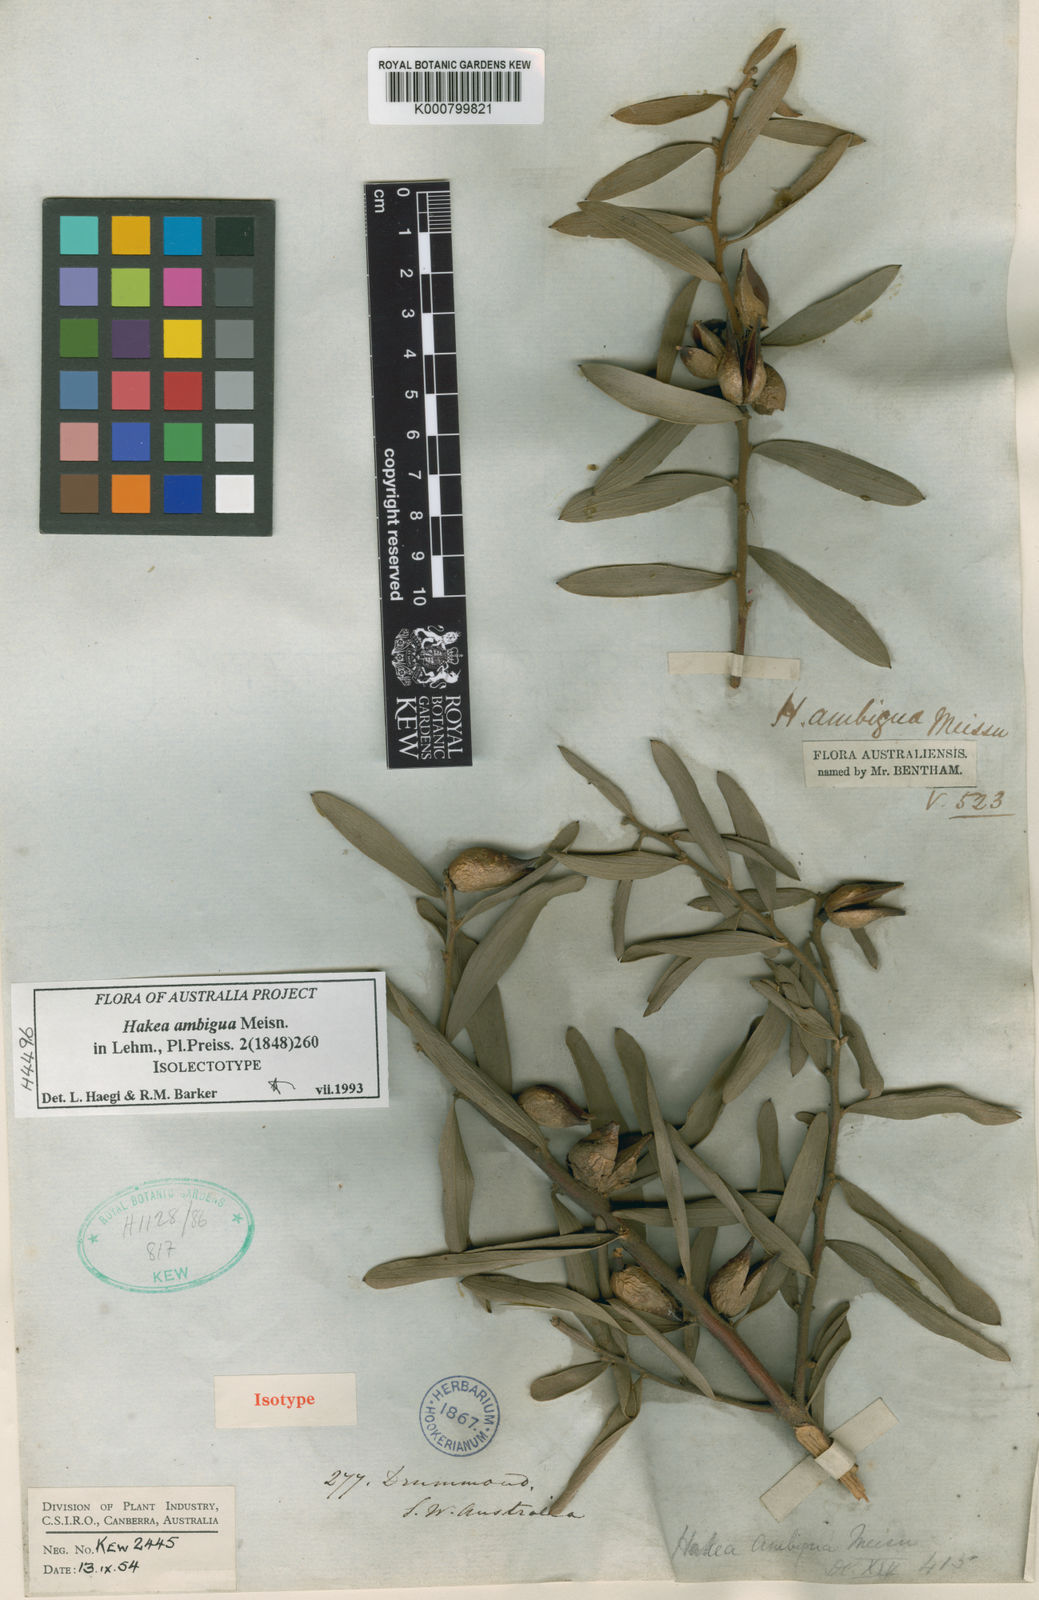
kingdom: Plantae
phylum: Tracheophyta
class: Magnoliopsida
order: Proteales
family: Proteaceae
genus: Hakea
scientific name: Hakea ambigua
